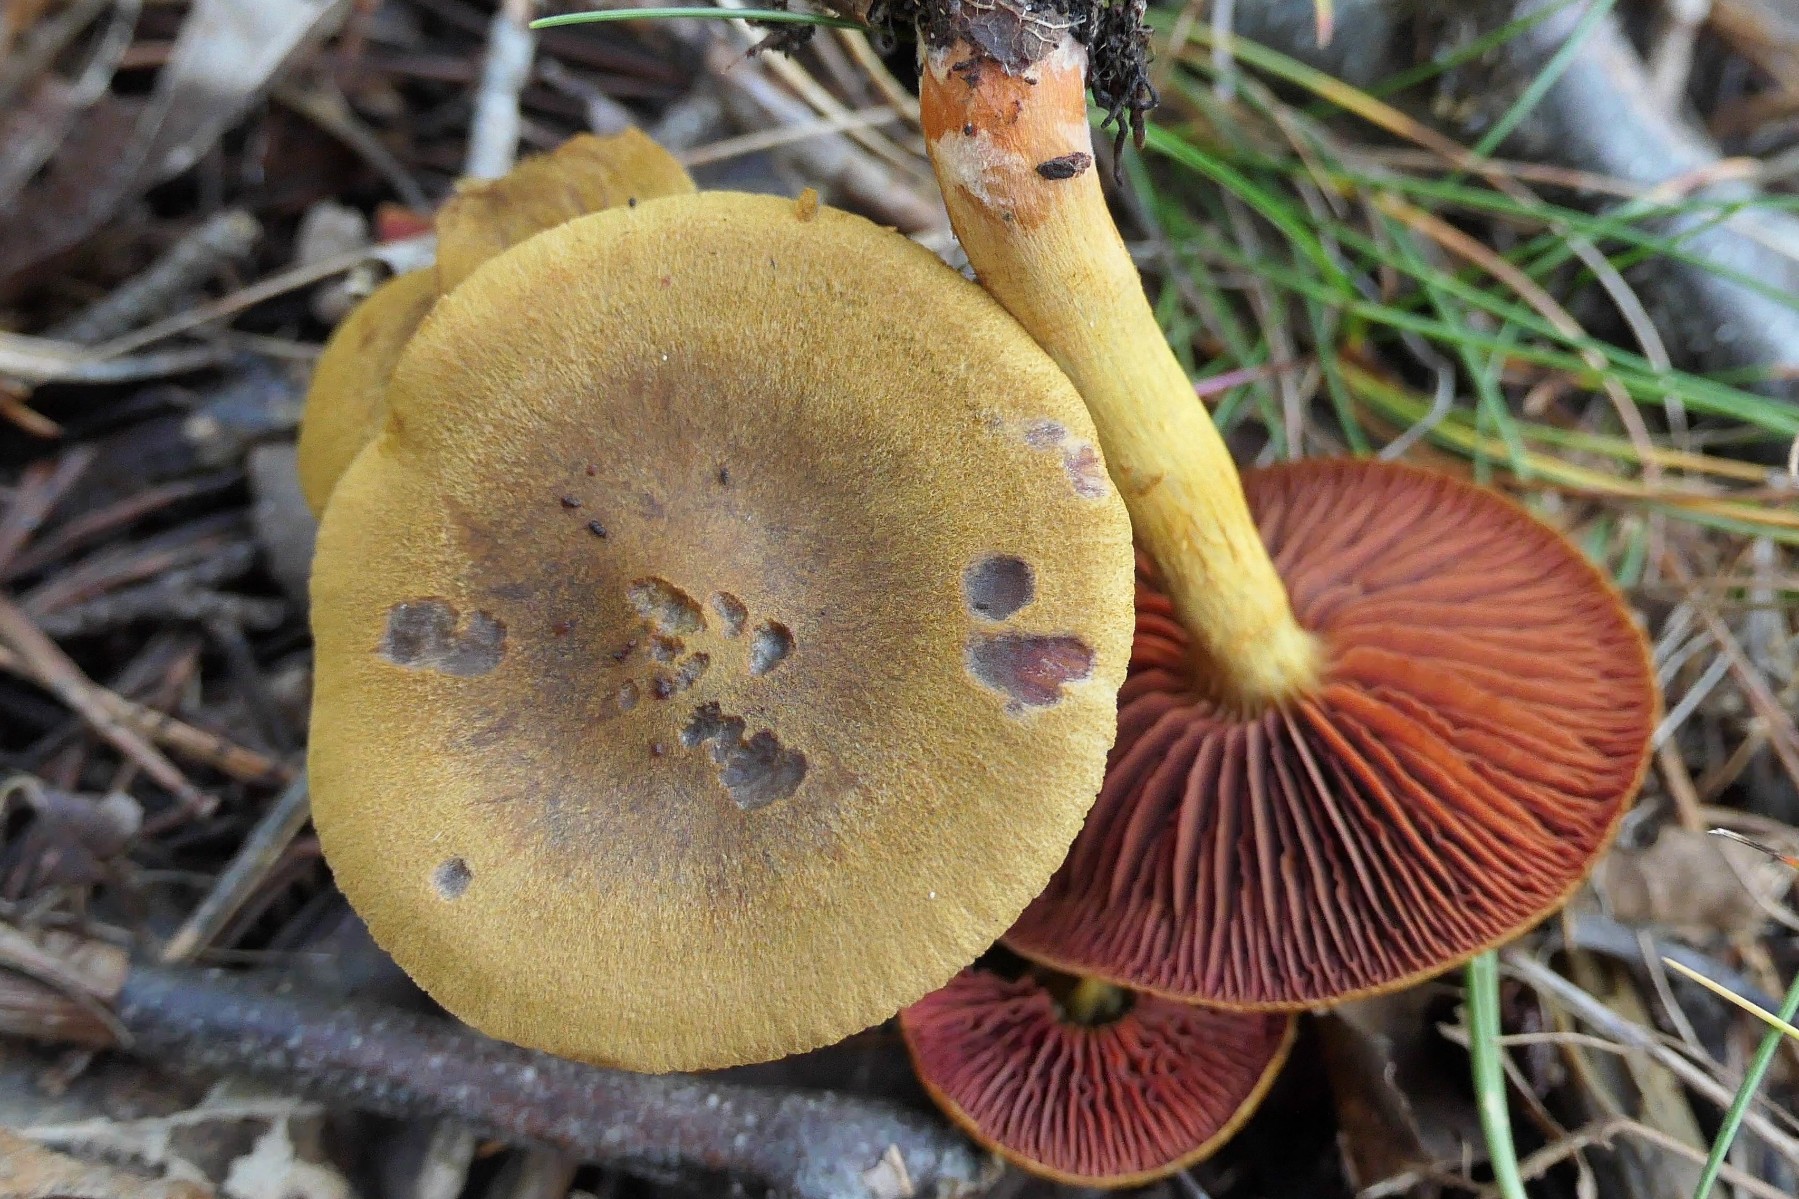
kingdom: Fungi
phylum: Basidiomycota
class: Agaricomycetes
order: Agaricales
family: Cortinariaceae
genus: Cortinarius
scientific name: Cortinarius
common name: cinnoberbladet slørhat
